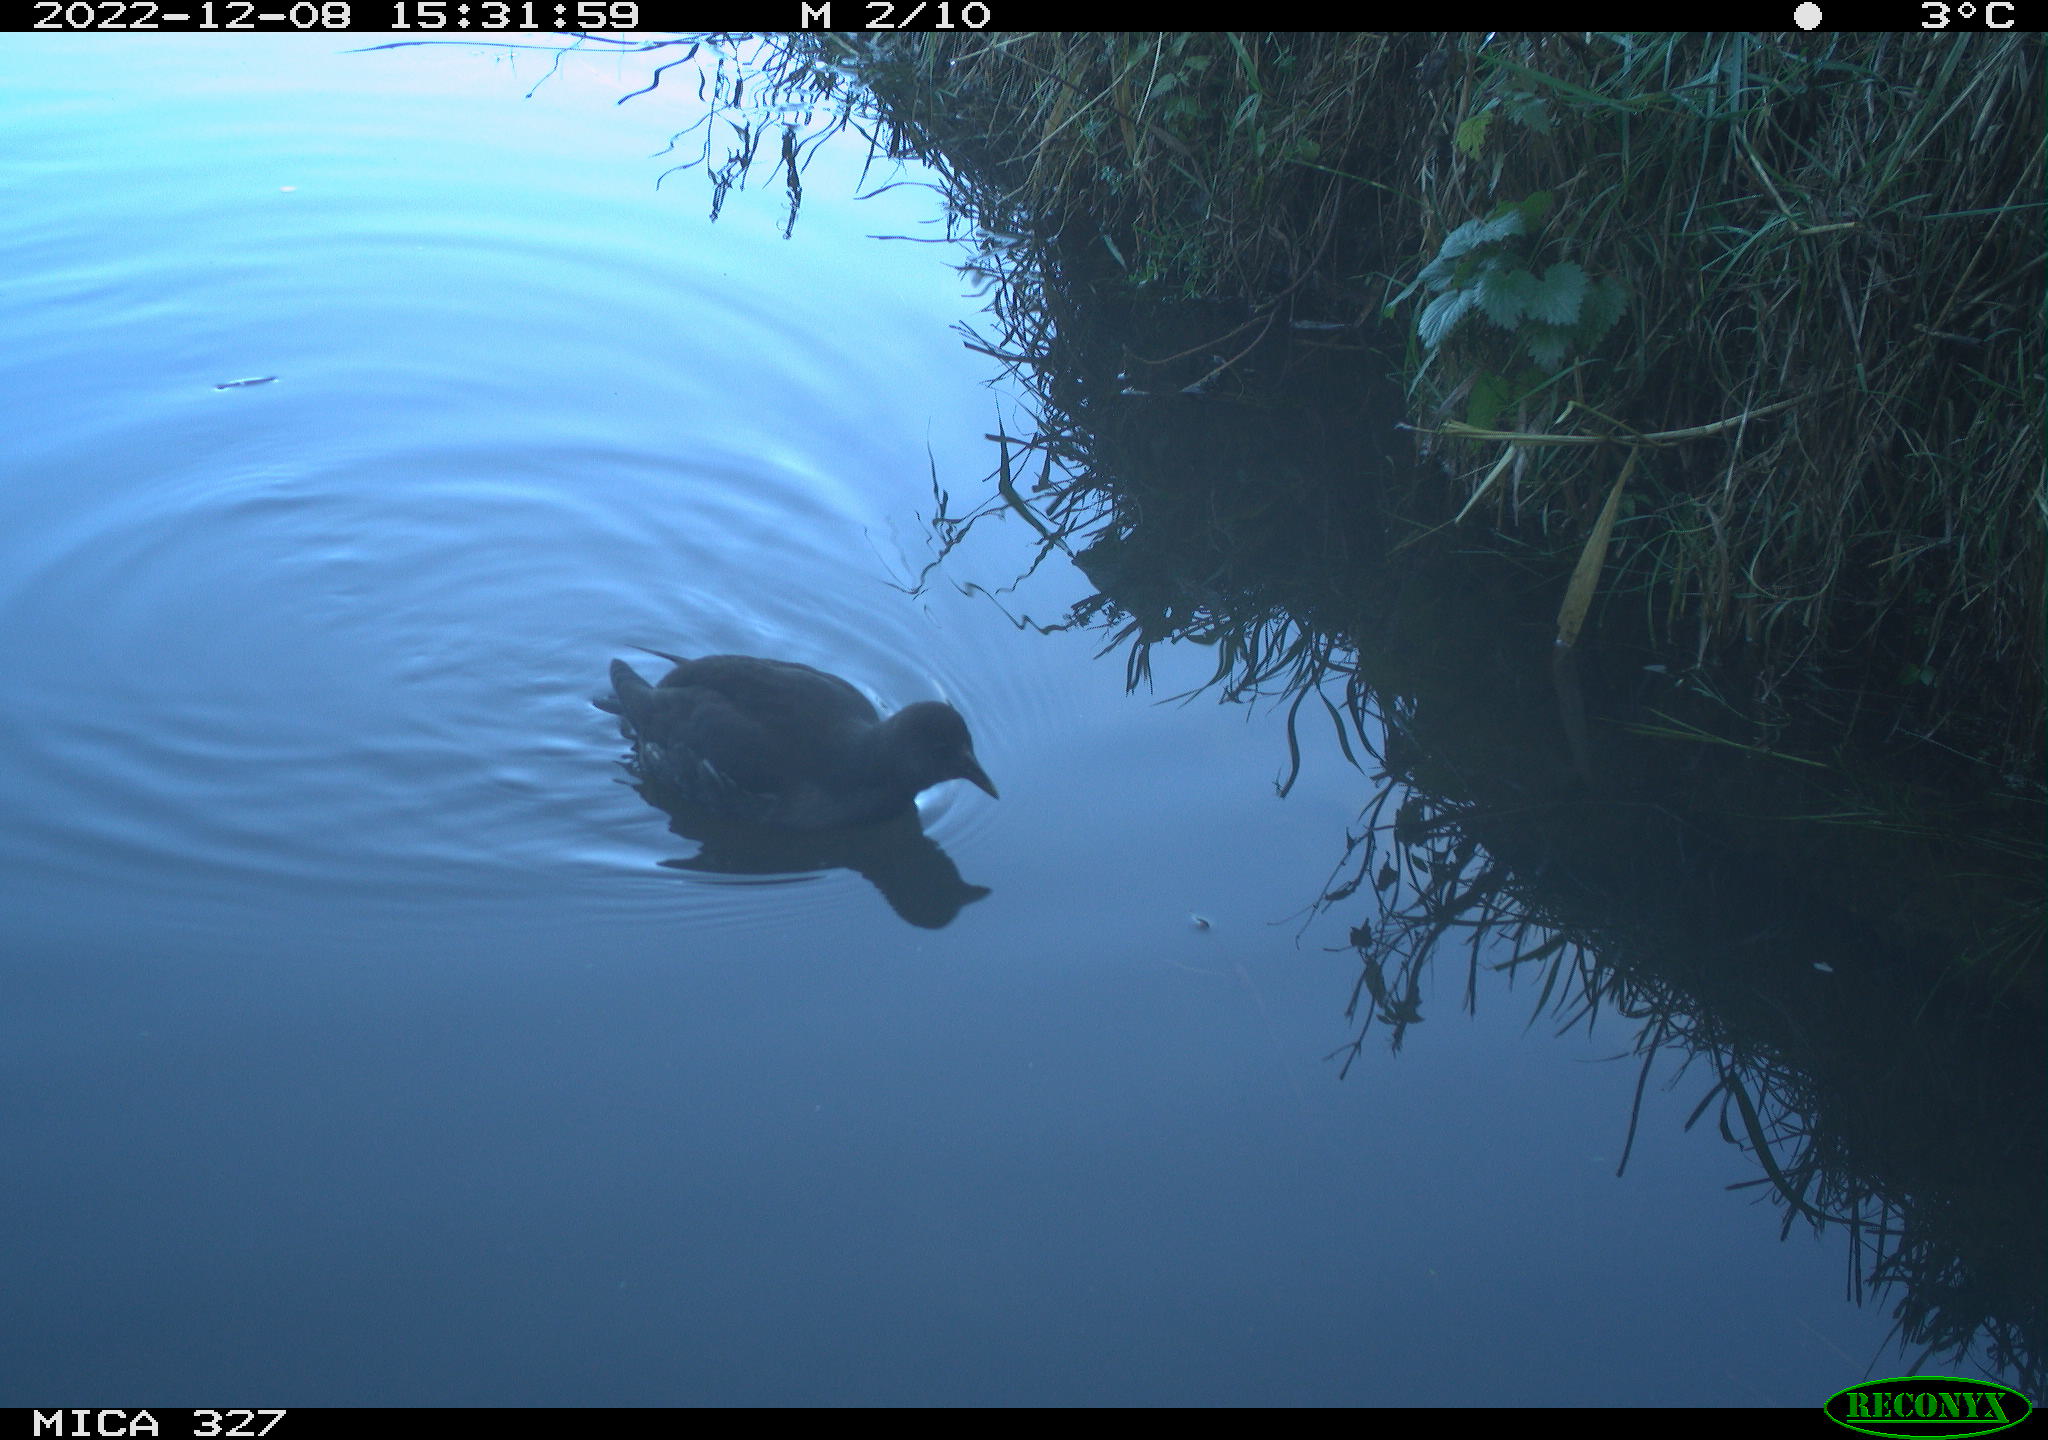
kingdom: Animalia
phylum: Chordata
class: Aves
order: Gruiformes
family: Rallidae
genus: Gallinula
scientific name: Gallinula chloropus
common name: Common moorhen
